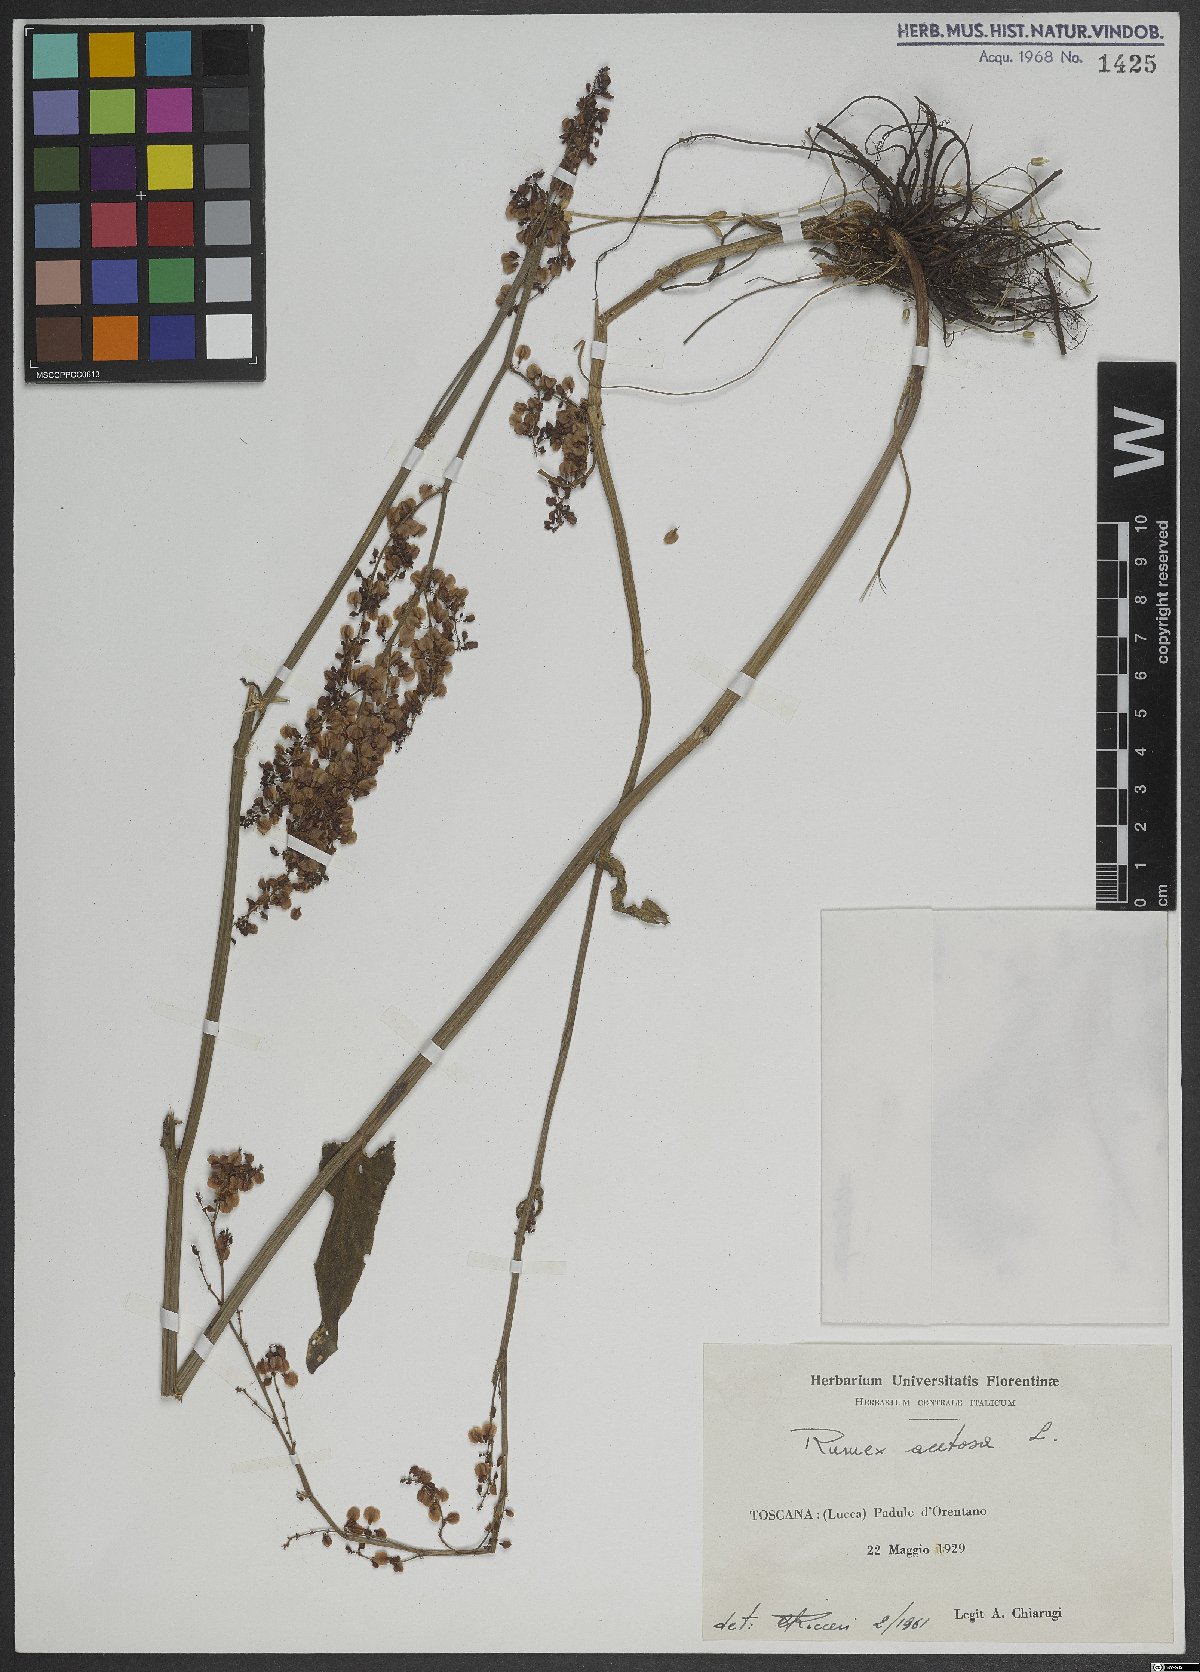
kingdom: Plantae
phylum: Tracheophyta
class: Magnoliopsida
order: Caryophyllales
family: Polygonaceae
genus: Rumex
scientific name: Rumex acetosa
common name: Garden sorrel
